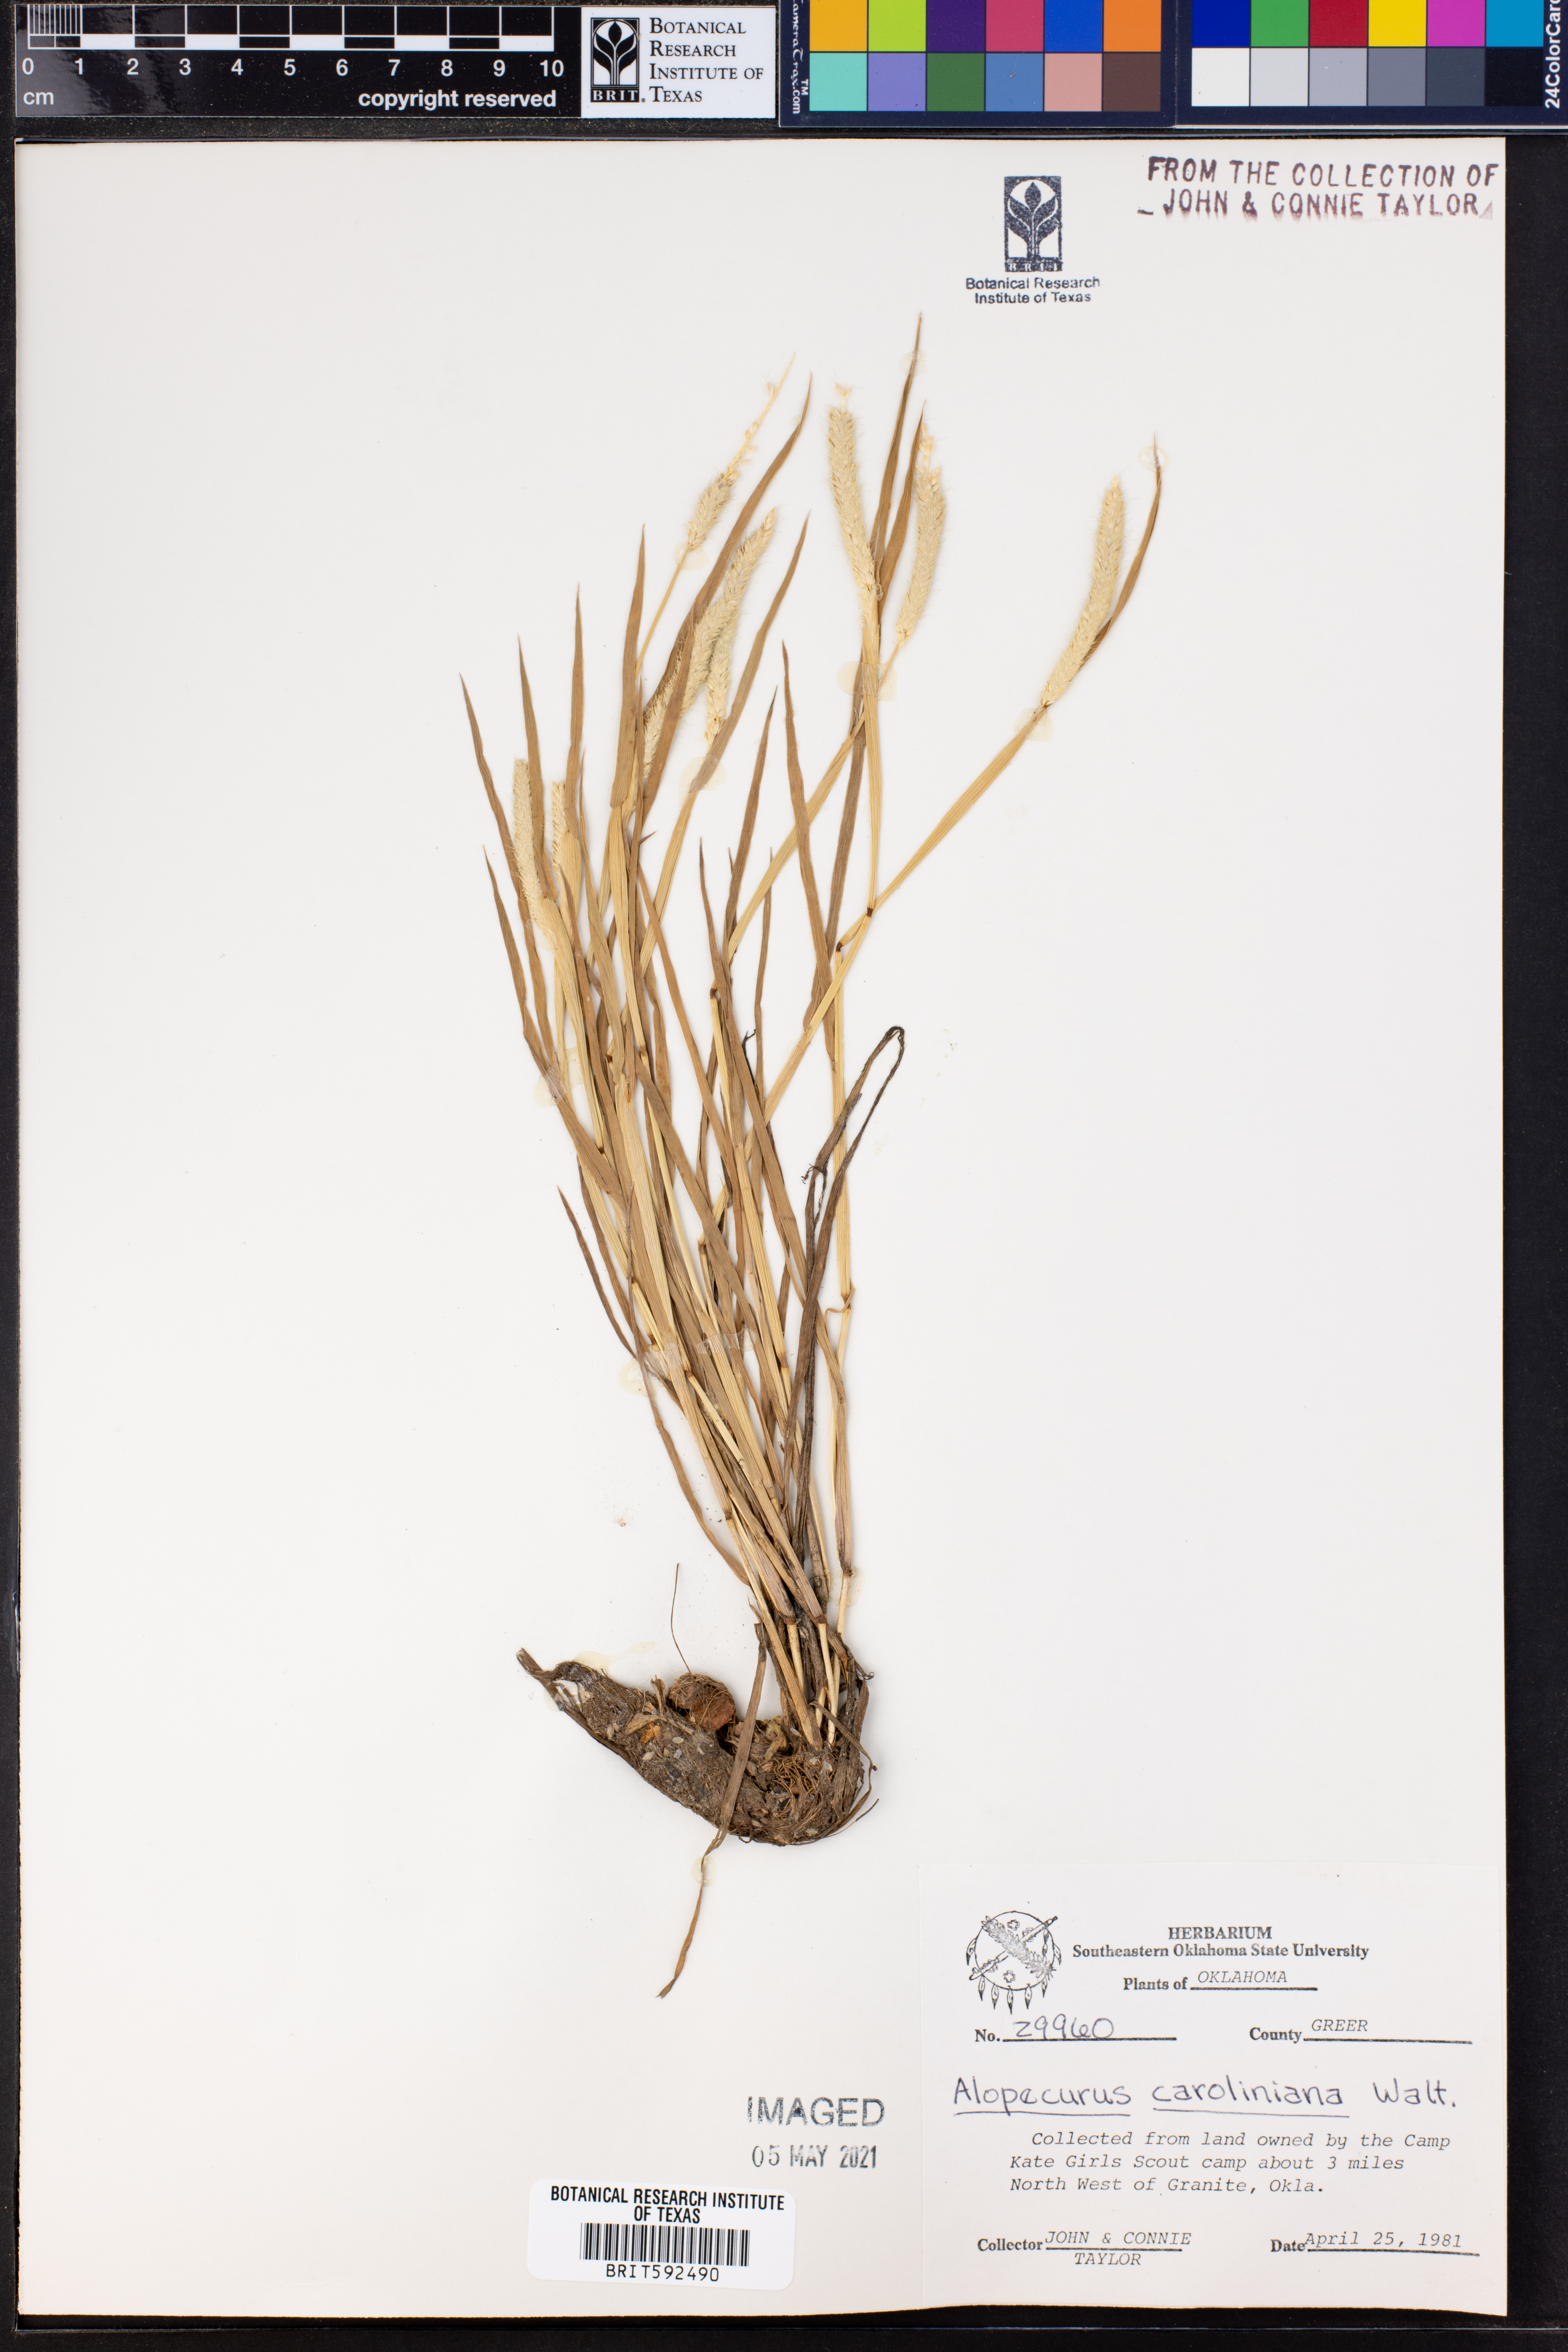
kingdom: Plantae
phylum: Tracheophyta
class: Liliopsida
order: Poales
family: Poaceae
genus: Alopecurus
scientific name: Alopecurus carolinianus
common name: Tufted foxtail
